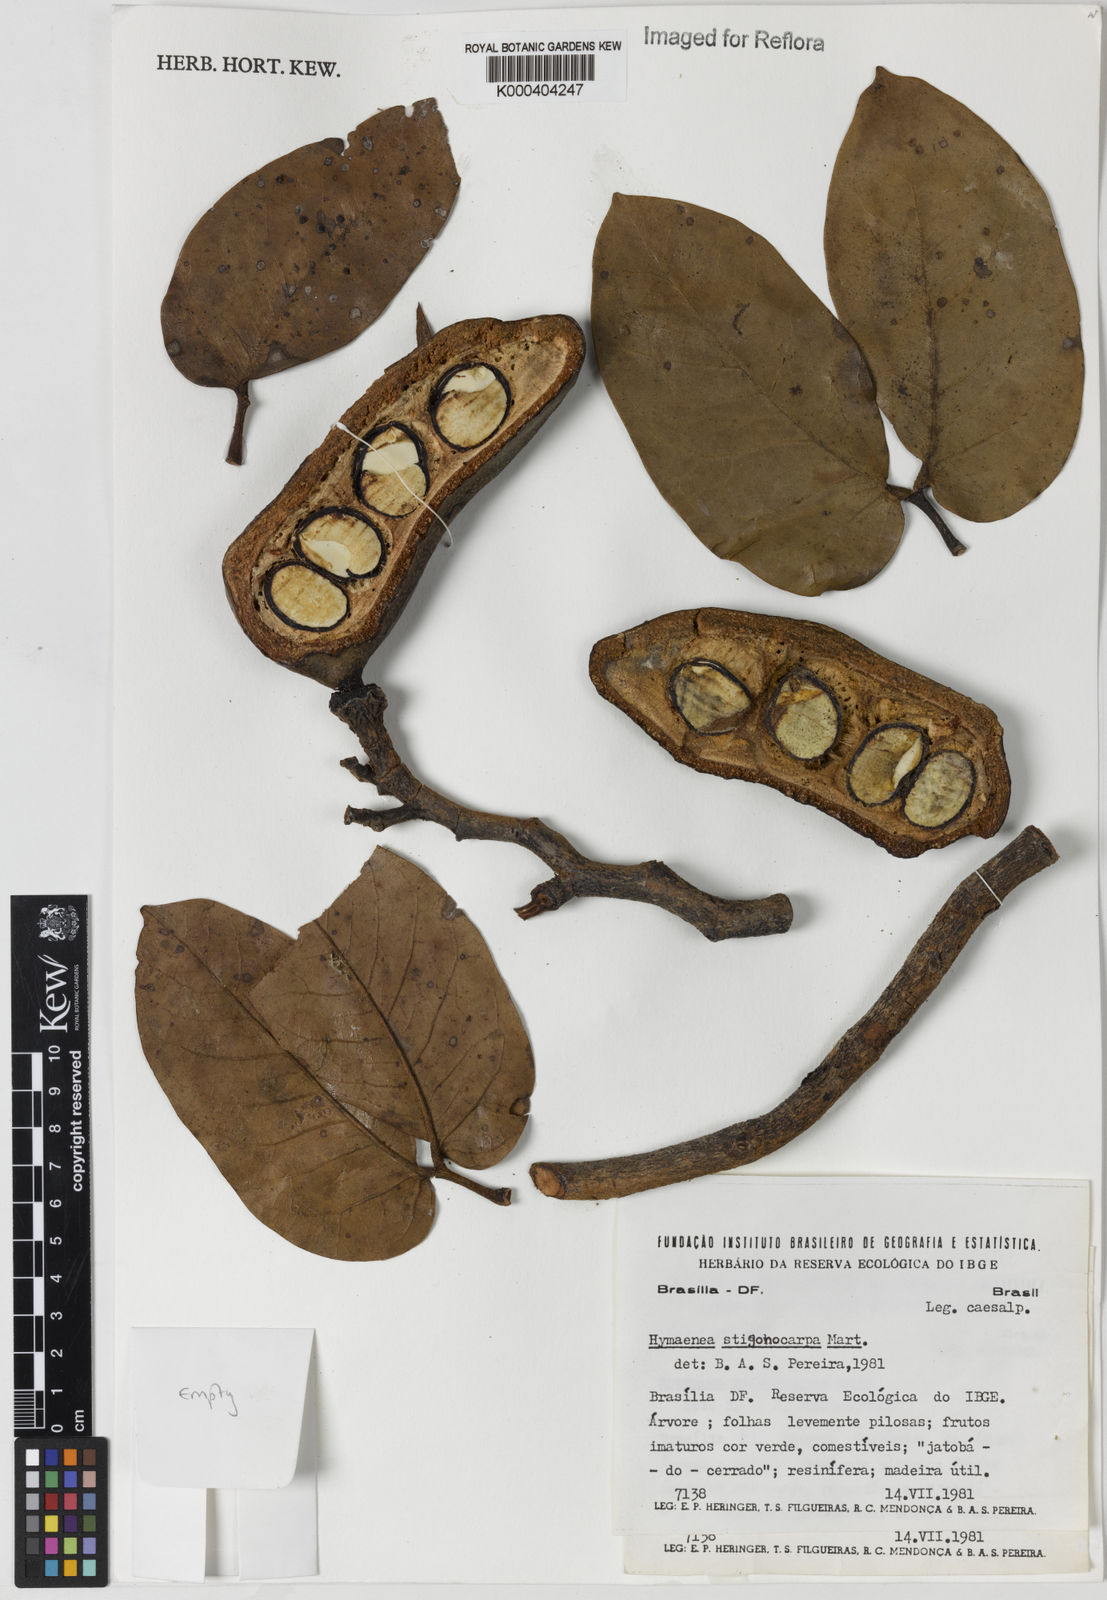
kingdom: Plantae
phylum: Tracheophyta
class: Magnoliopsida
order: Fabales
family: Fabaceae
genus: Hymenaea
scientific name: Hymenaea stigonocarpa
